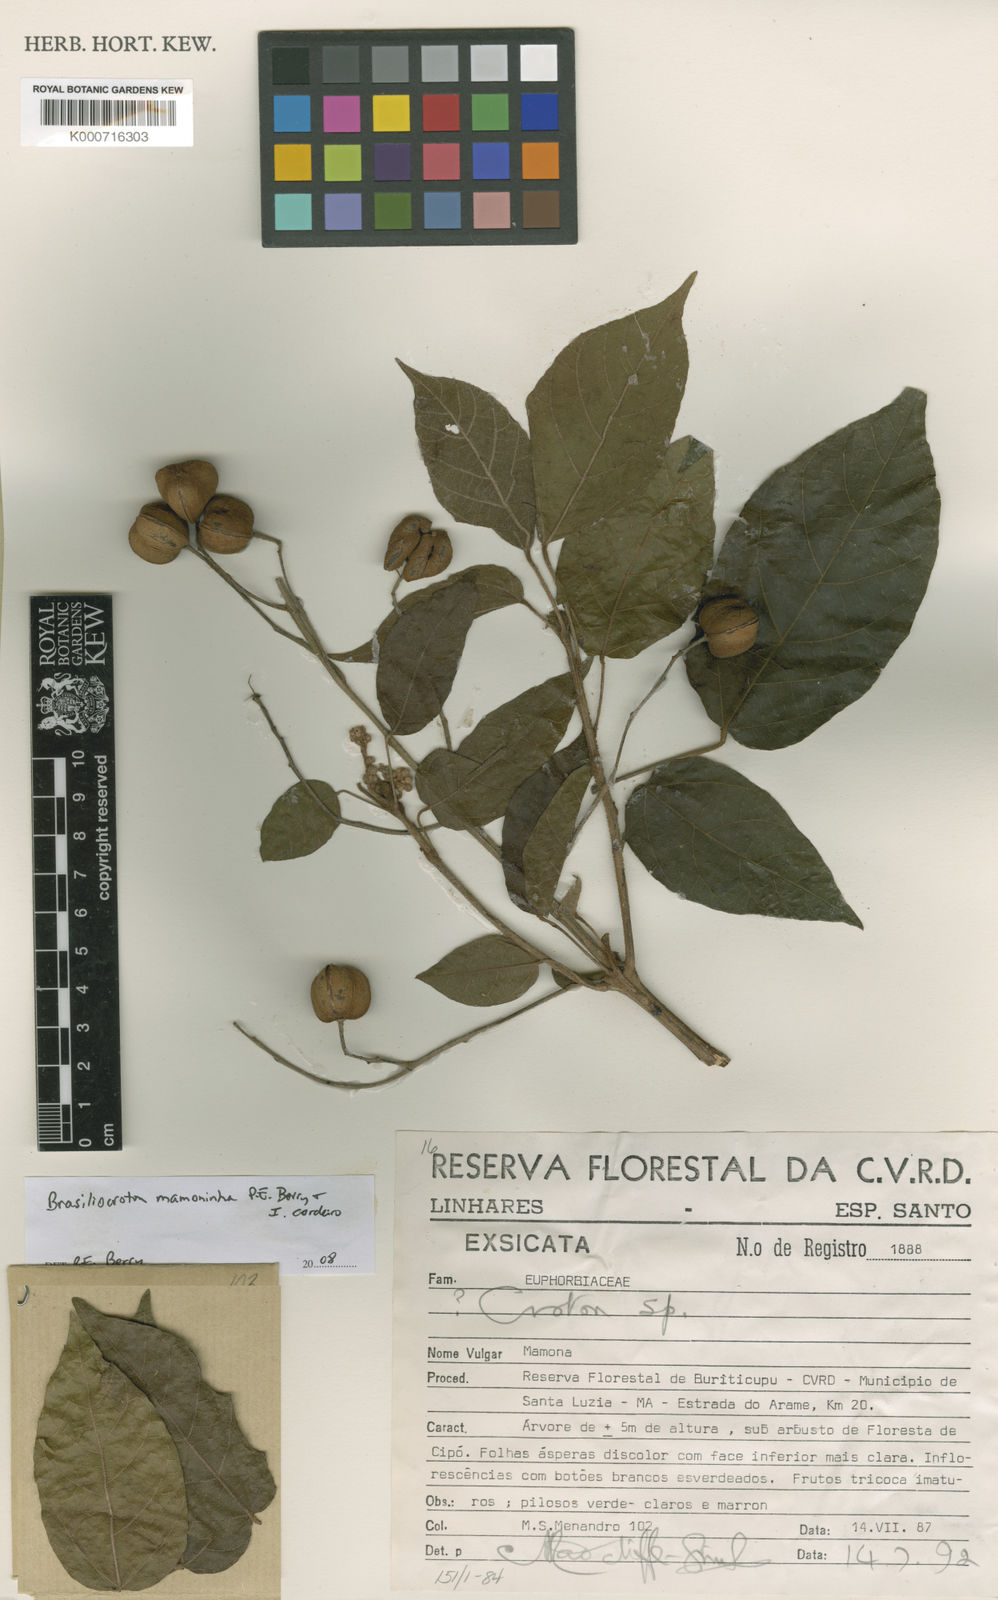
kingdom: Plantae
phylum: Tracheophyta
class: Magnoliopsida
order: Malpighiales
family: Euphorbiaceae
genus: Brasiliocroton
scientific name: Brasiliocroton mamoninha
